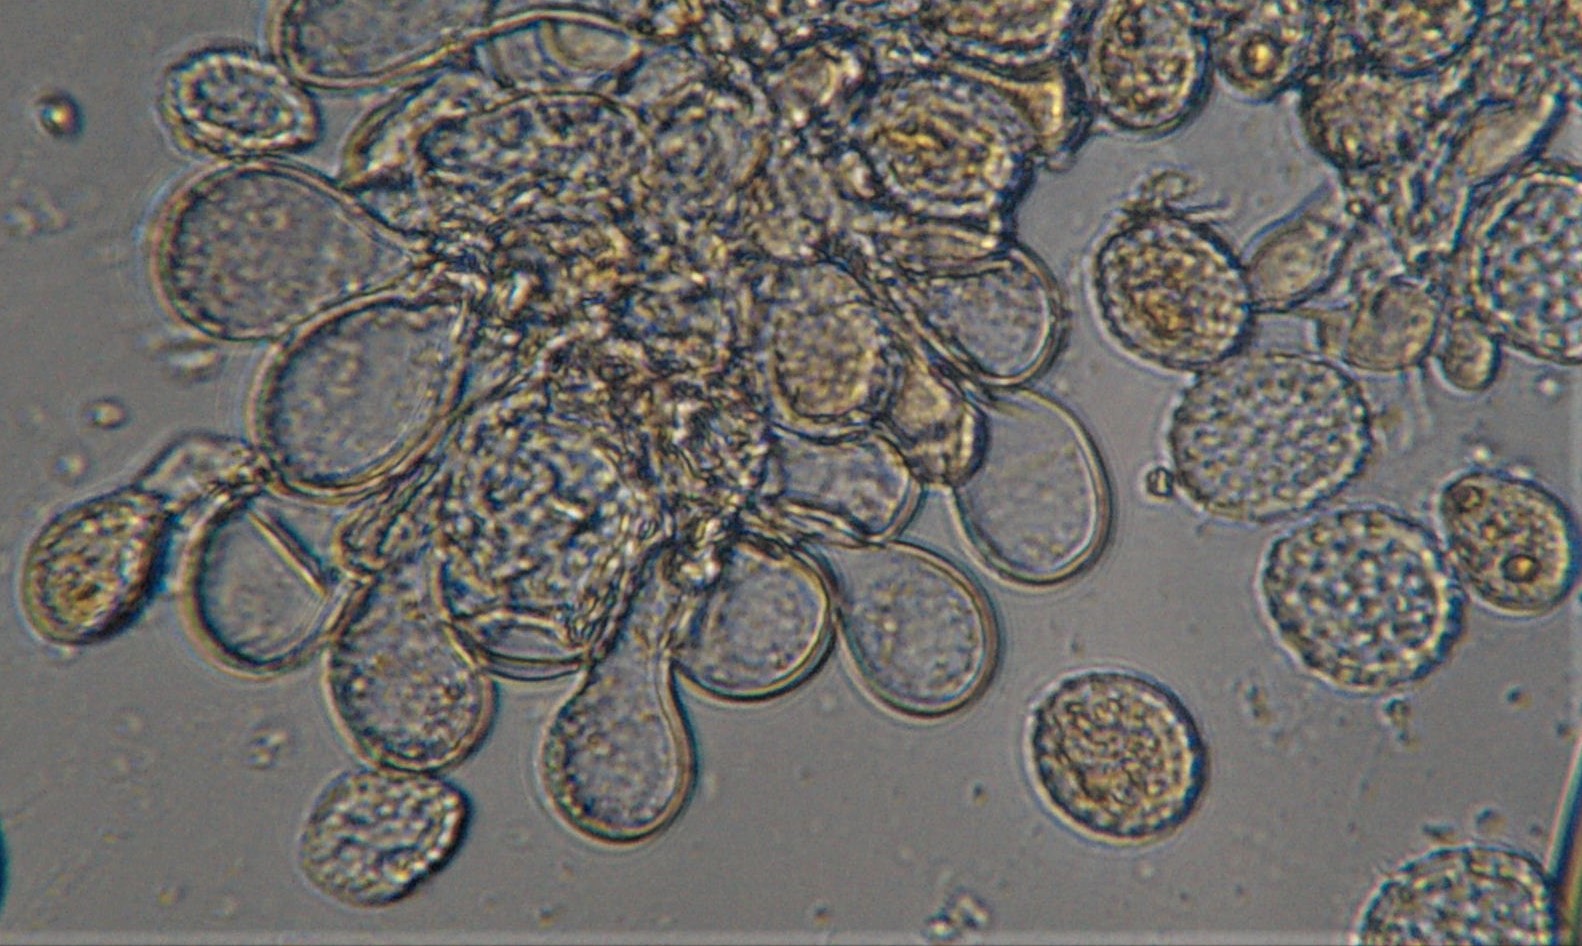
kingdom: Fungi
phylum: Basidiomycota
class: Pucciniomycetes
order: Pucciniales
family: Phragmidiaceae
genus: Phragmidium
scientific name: Phragmidium
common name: flercellerust
